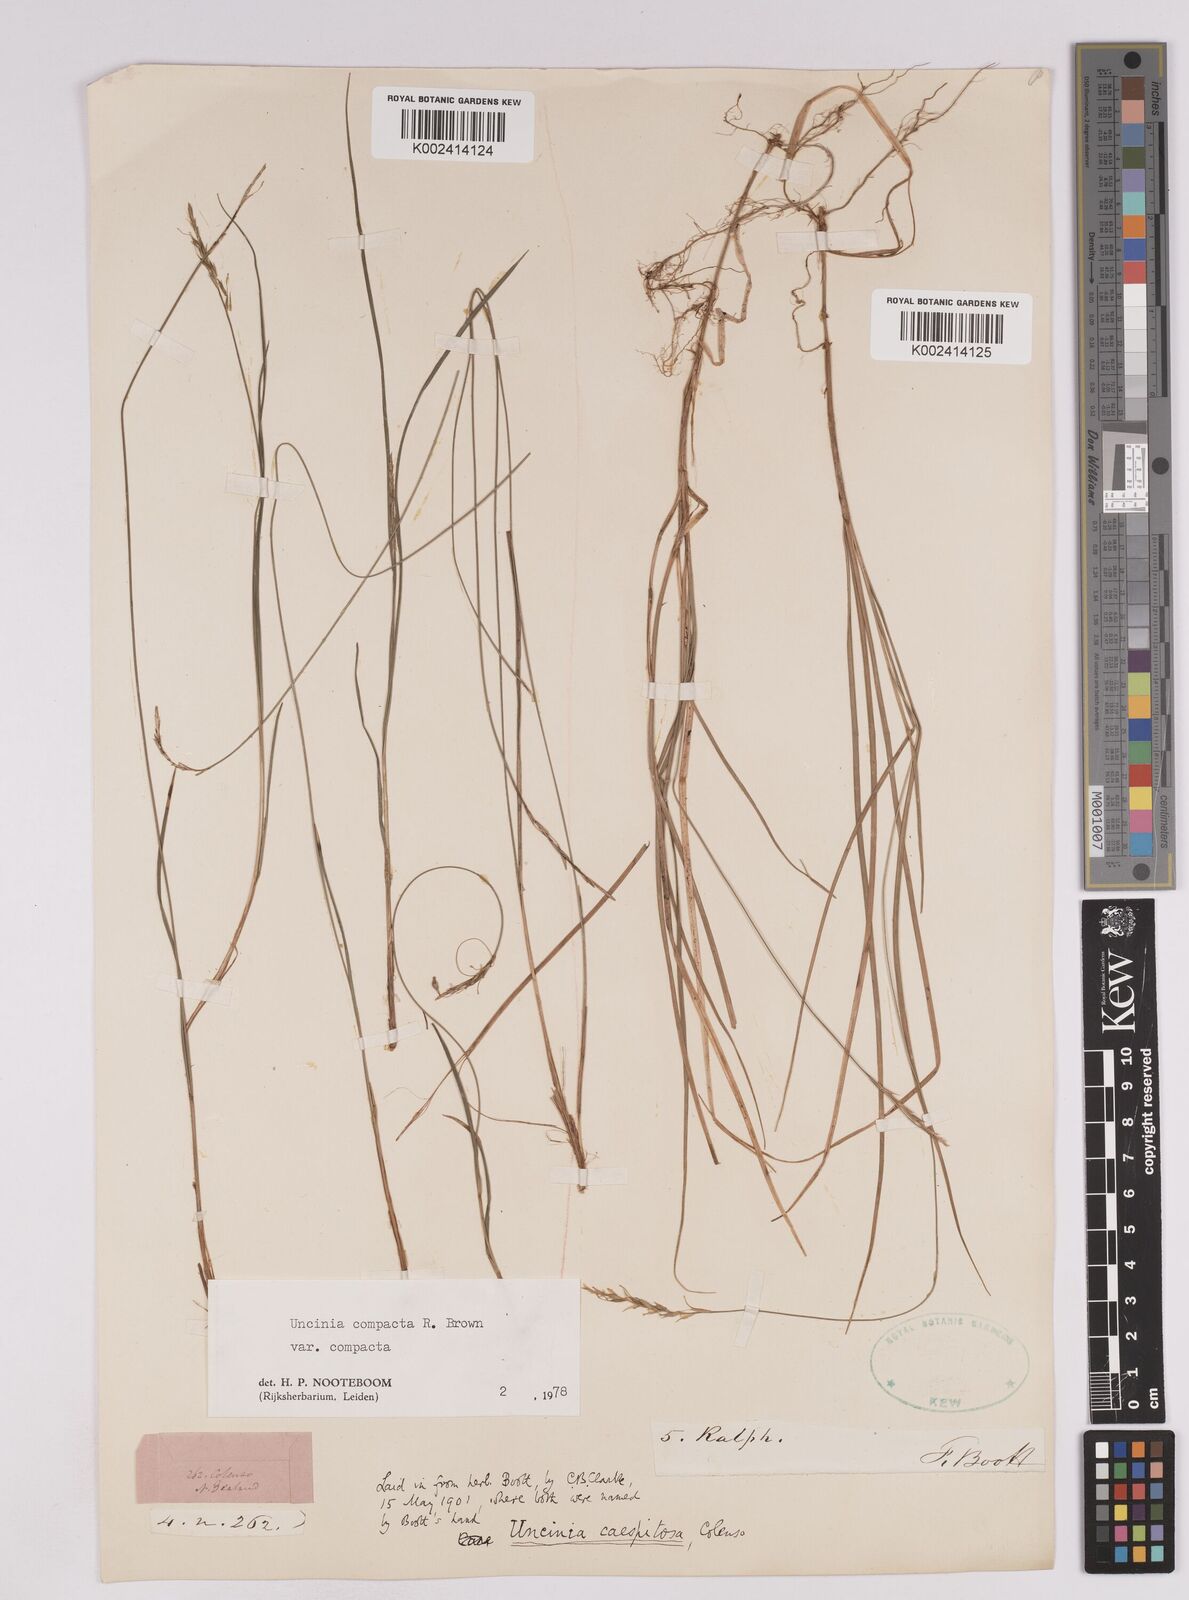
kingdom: Plantae
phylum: Tracheophyta
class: Liliopsida
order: Poales
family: Cyperaceae
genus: Carex
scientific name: Carex austrocompacta
